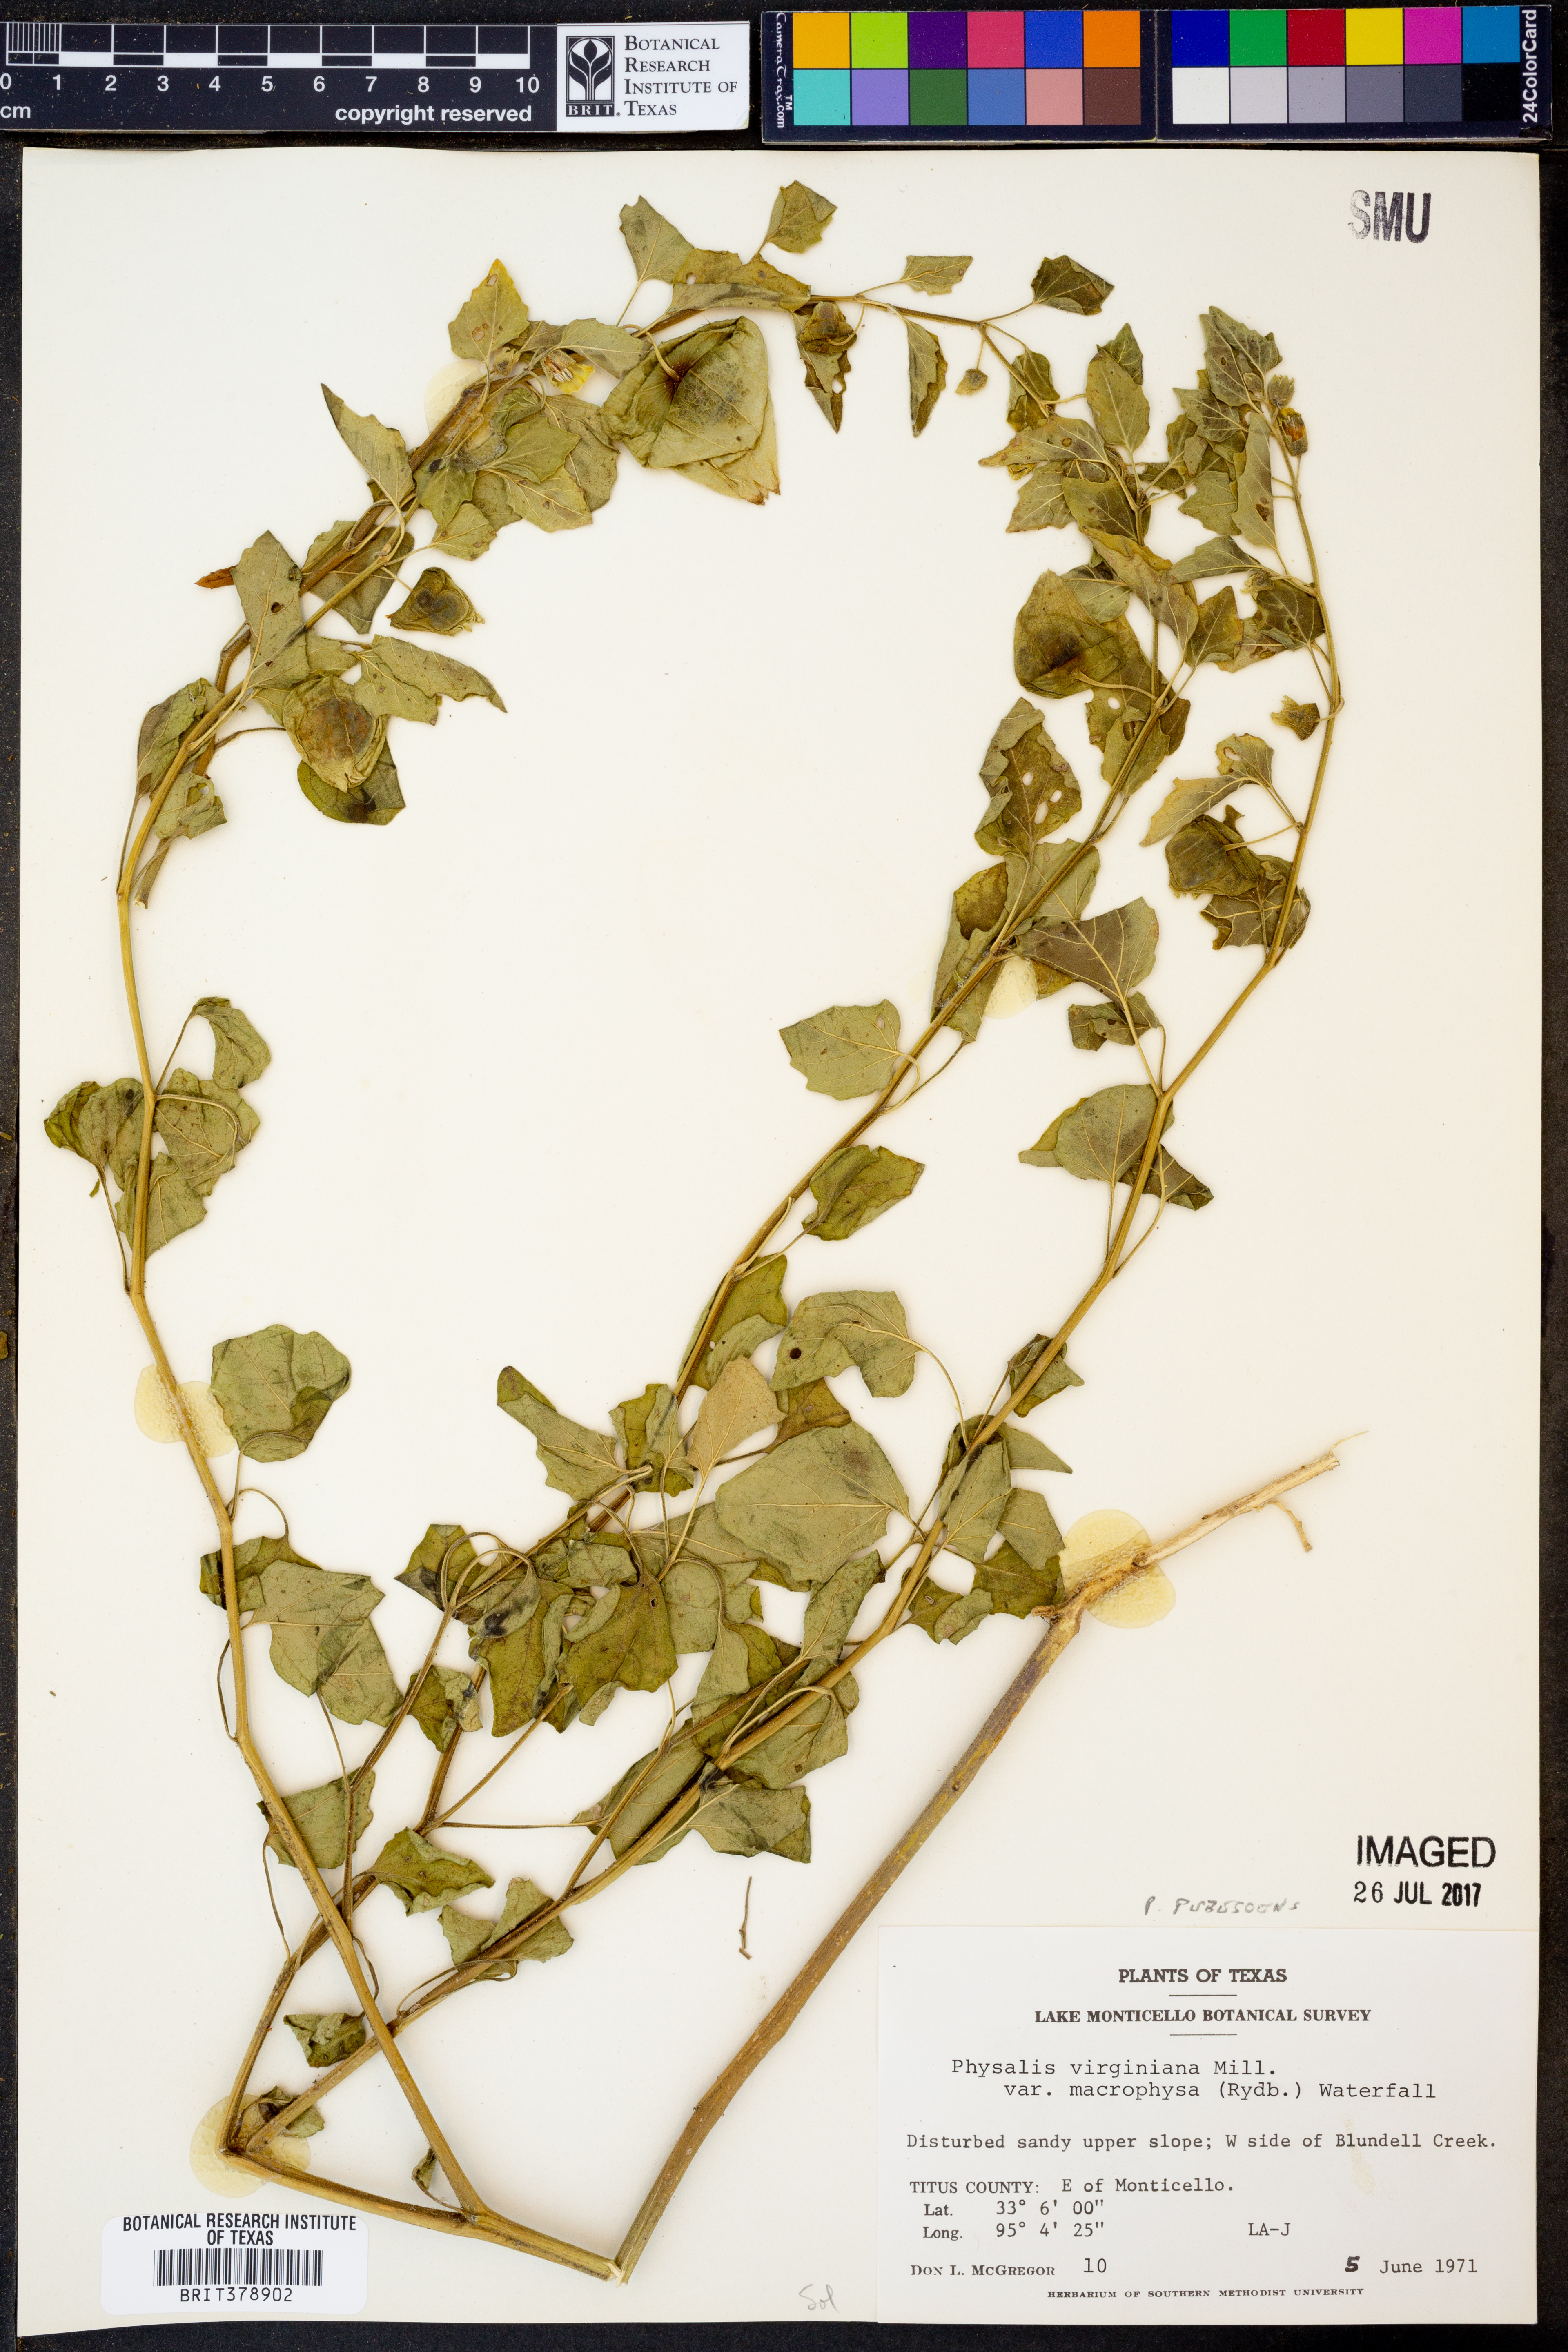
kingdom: Plantae
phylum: Tracheophyta
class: Magnoliopsida
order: Solanales
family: Solanaceae
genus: Physalis
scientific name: Physalis pubescens
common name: Downy ground-cherry
